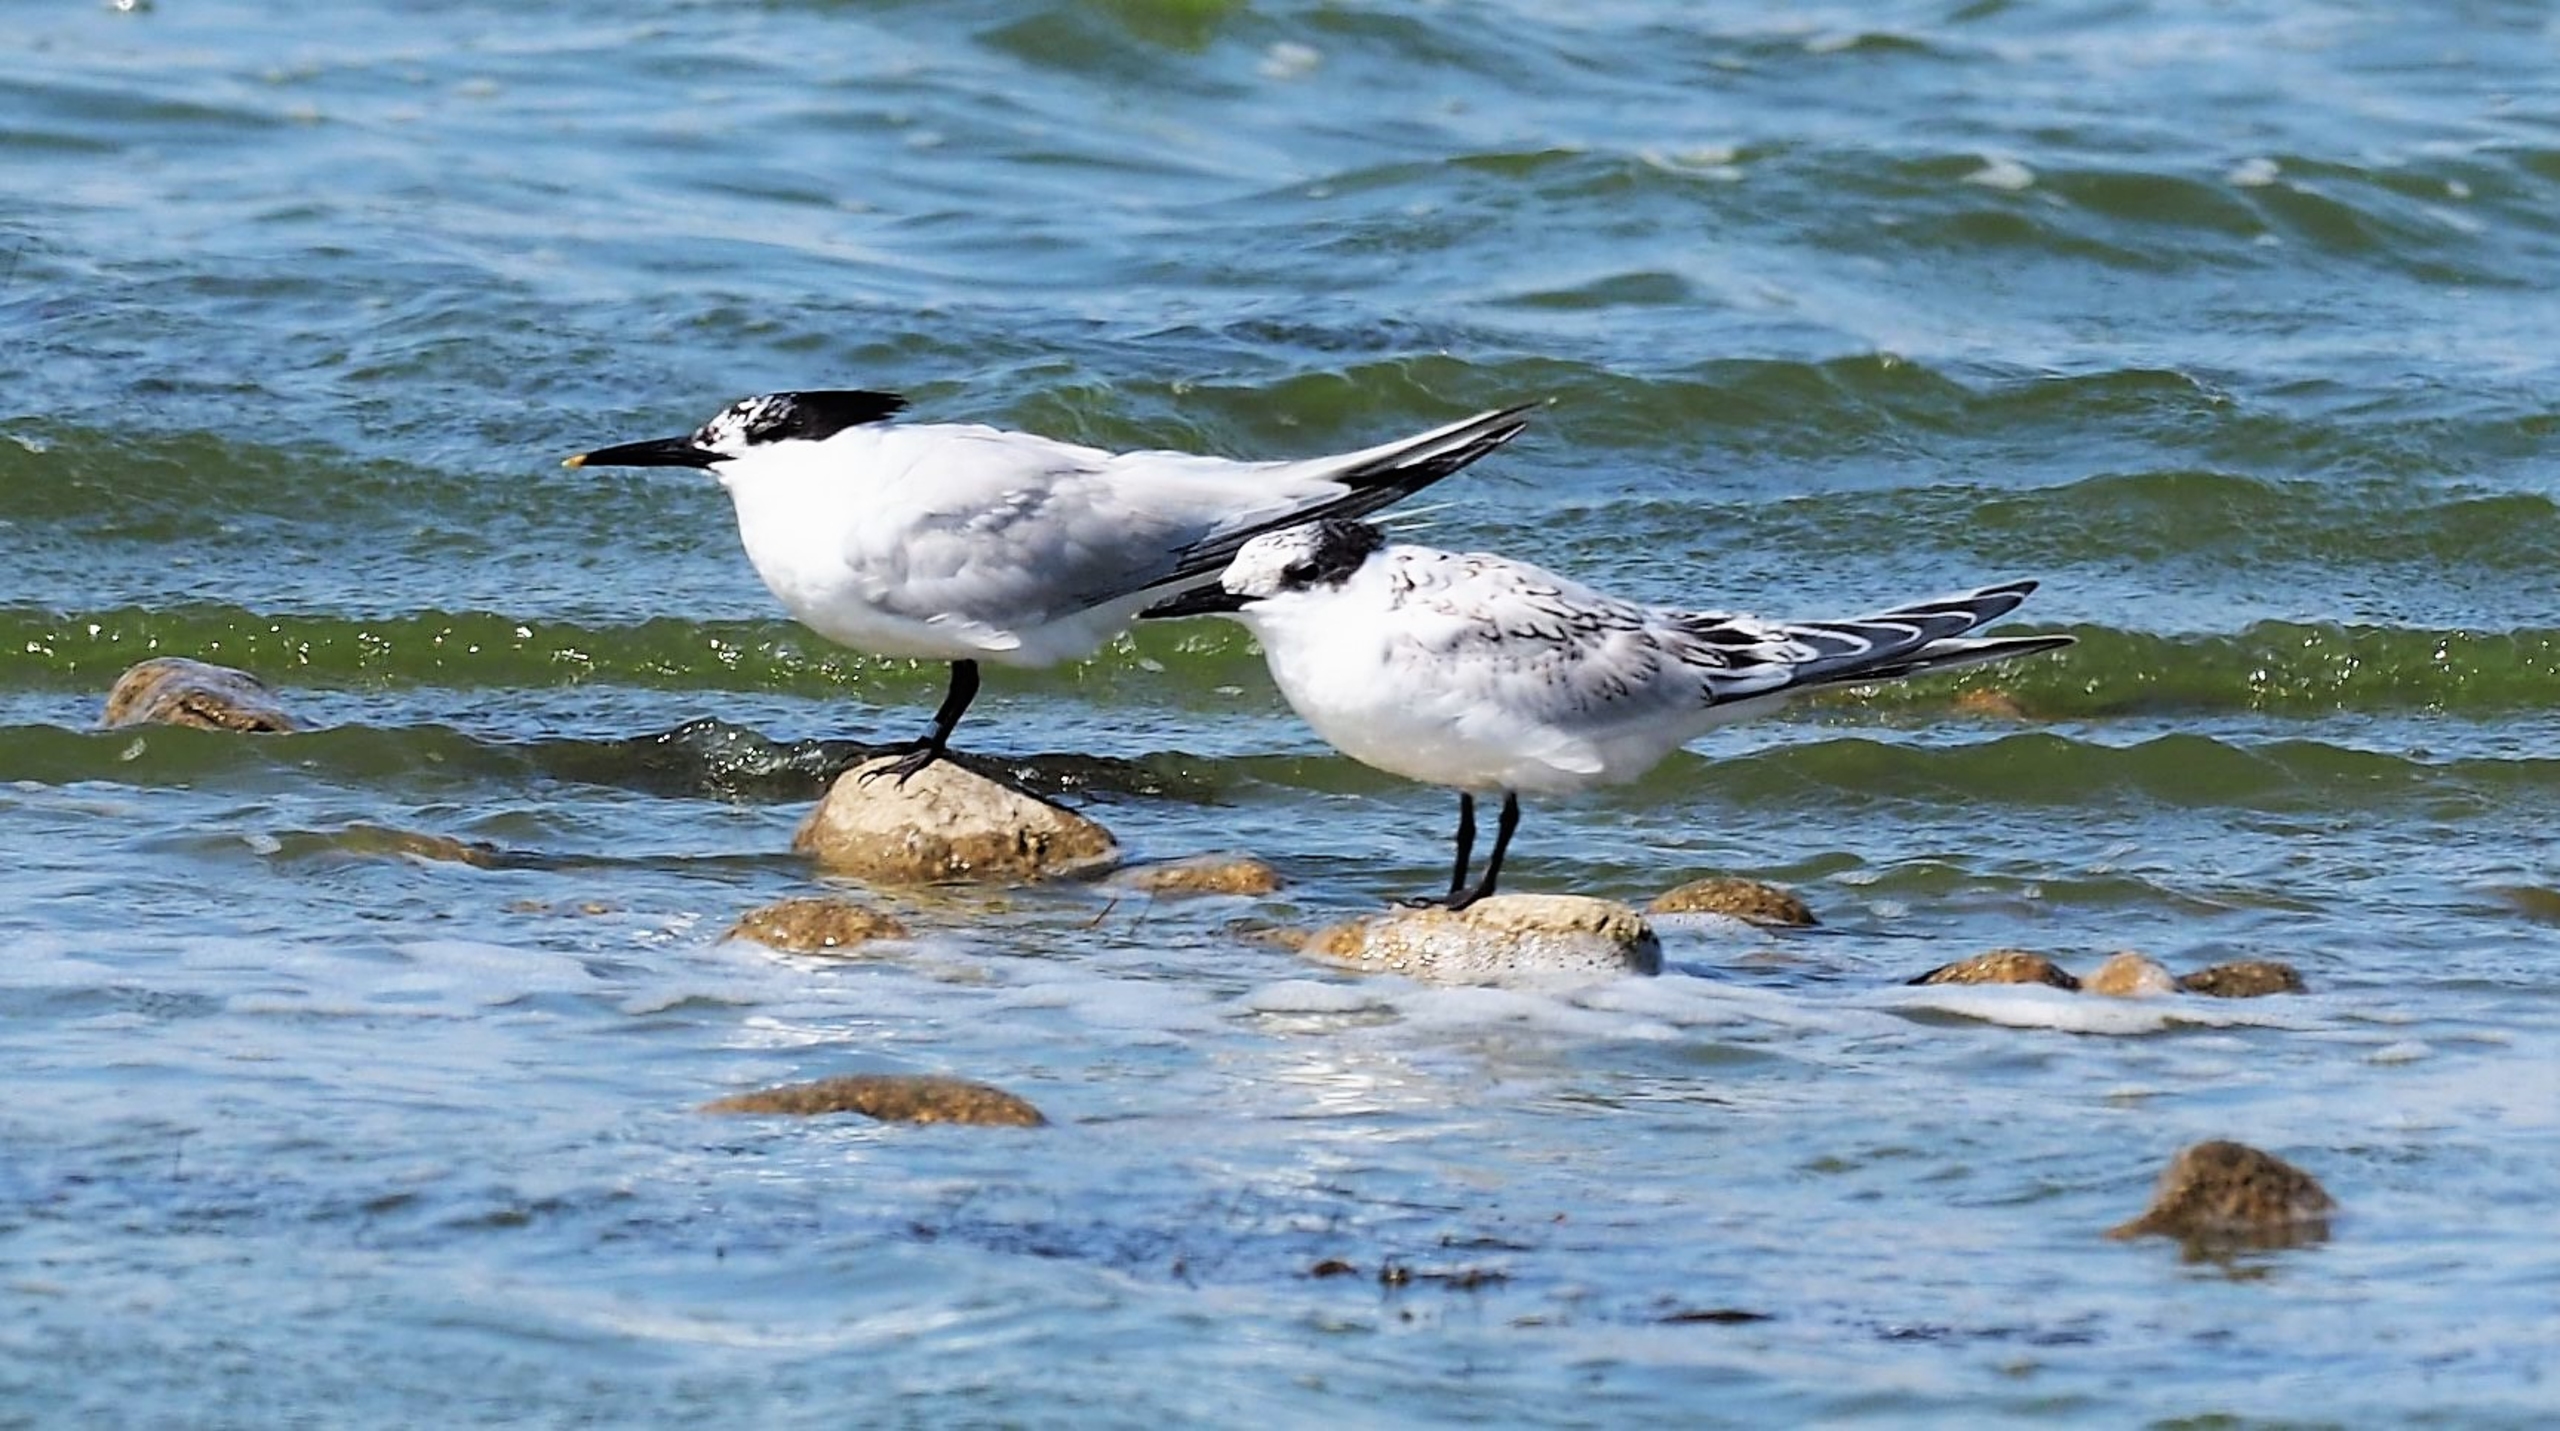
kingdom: Animalia
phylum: Chordata
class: Aves
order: Charadriiformes
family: Laridae
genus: Thalasseus
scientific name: Thalasseus sandvicensis
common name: Splitterne
